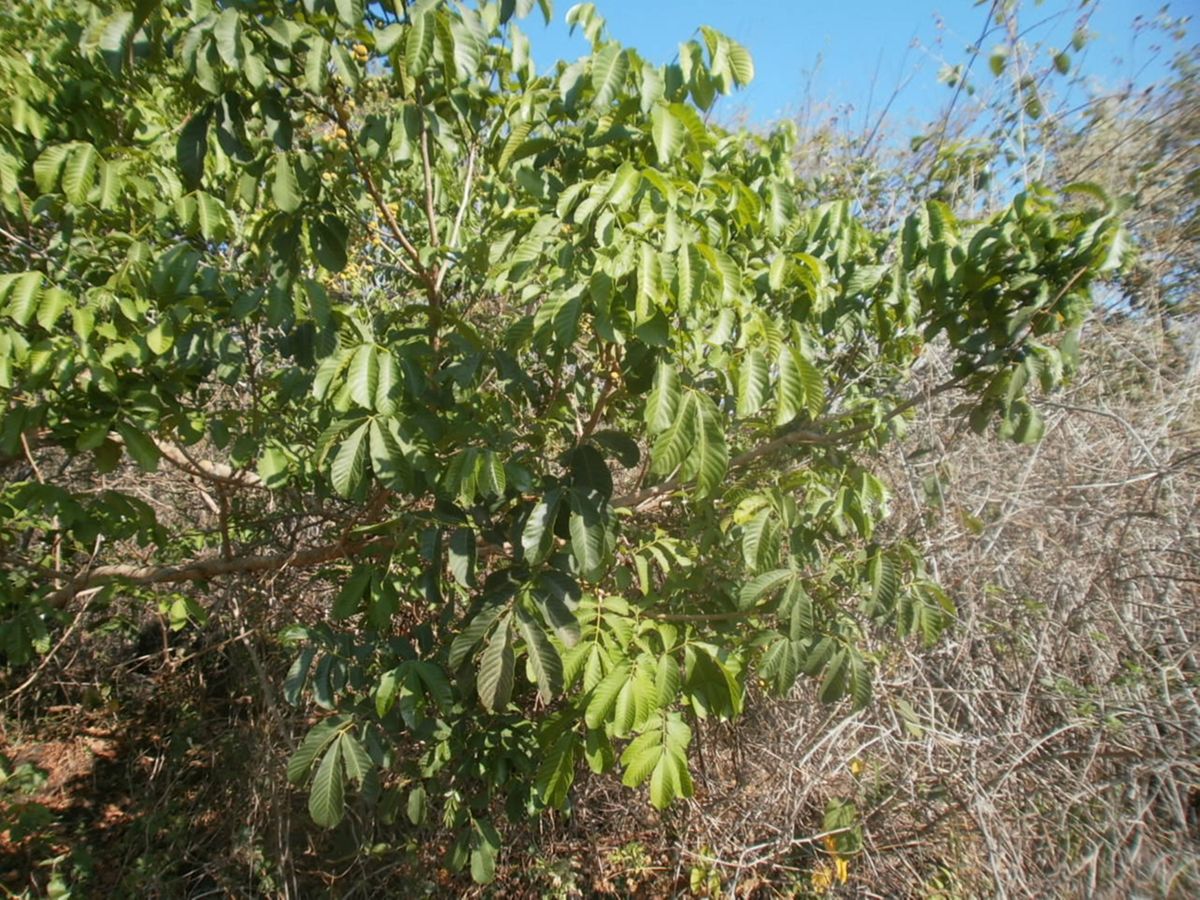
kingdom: Plantae
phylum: Tracheophyta
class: Magnoliopsida
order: Sapindales
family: Meliaceae
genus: Trichilia
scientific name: Trichilia martiana
